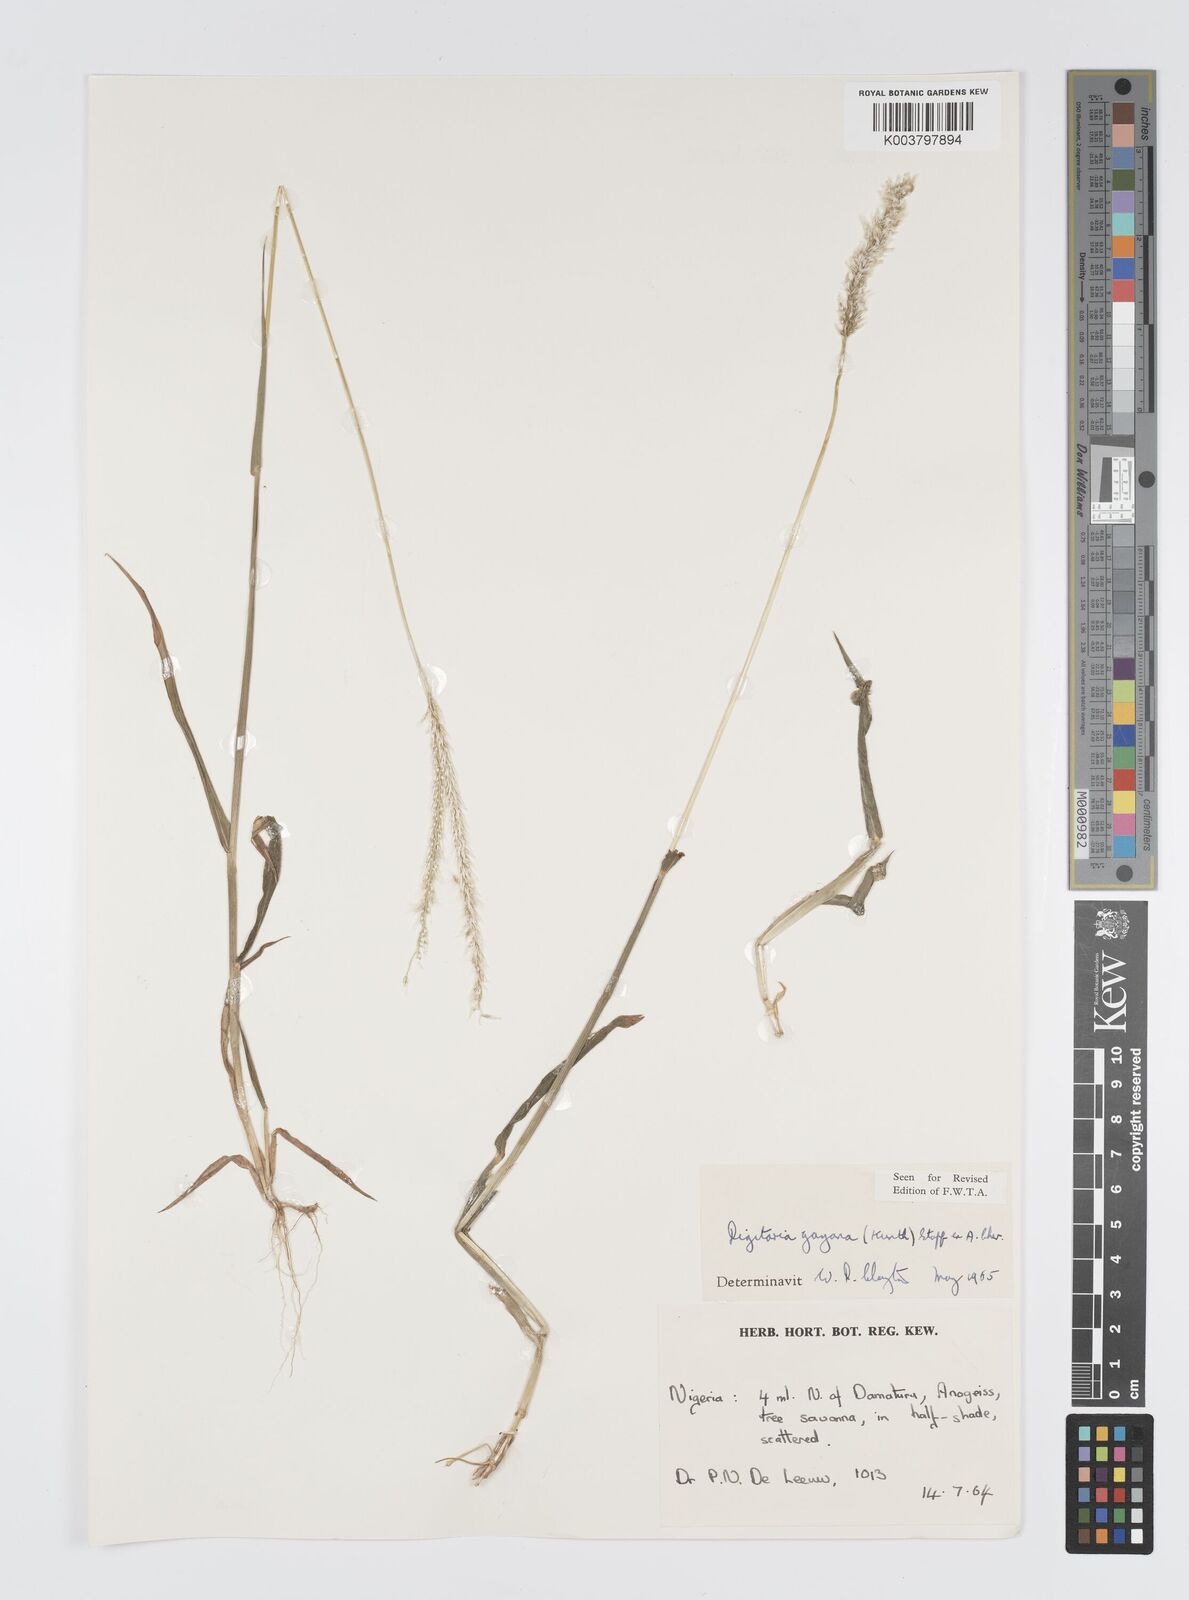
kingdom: Plantae
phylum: Tracheophyta
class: Liliopsida
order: Poales
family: Poaceae
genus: Digitaria
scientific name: Digitaria gayana
